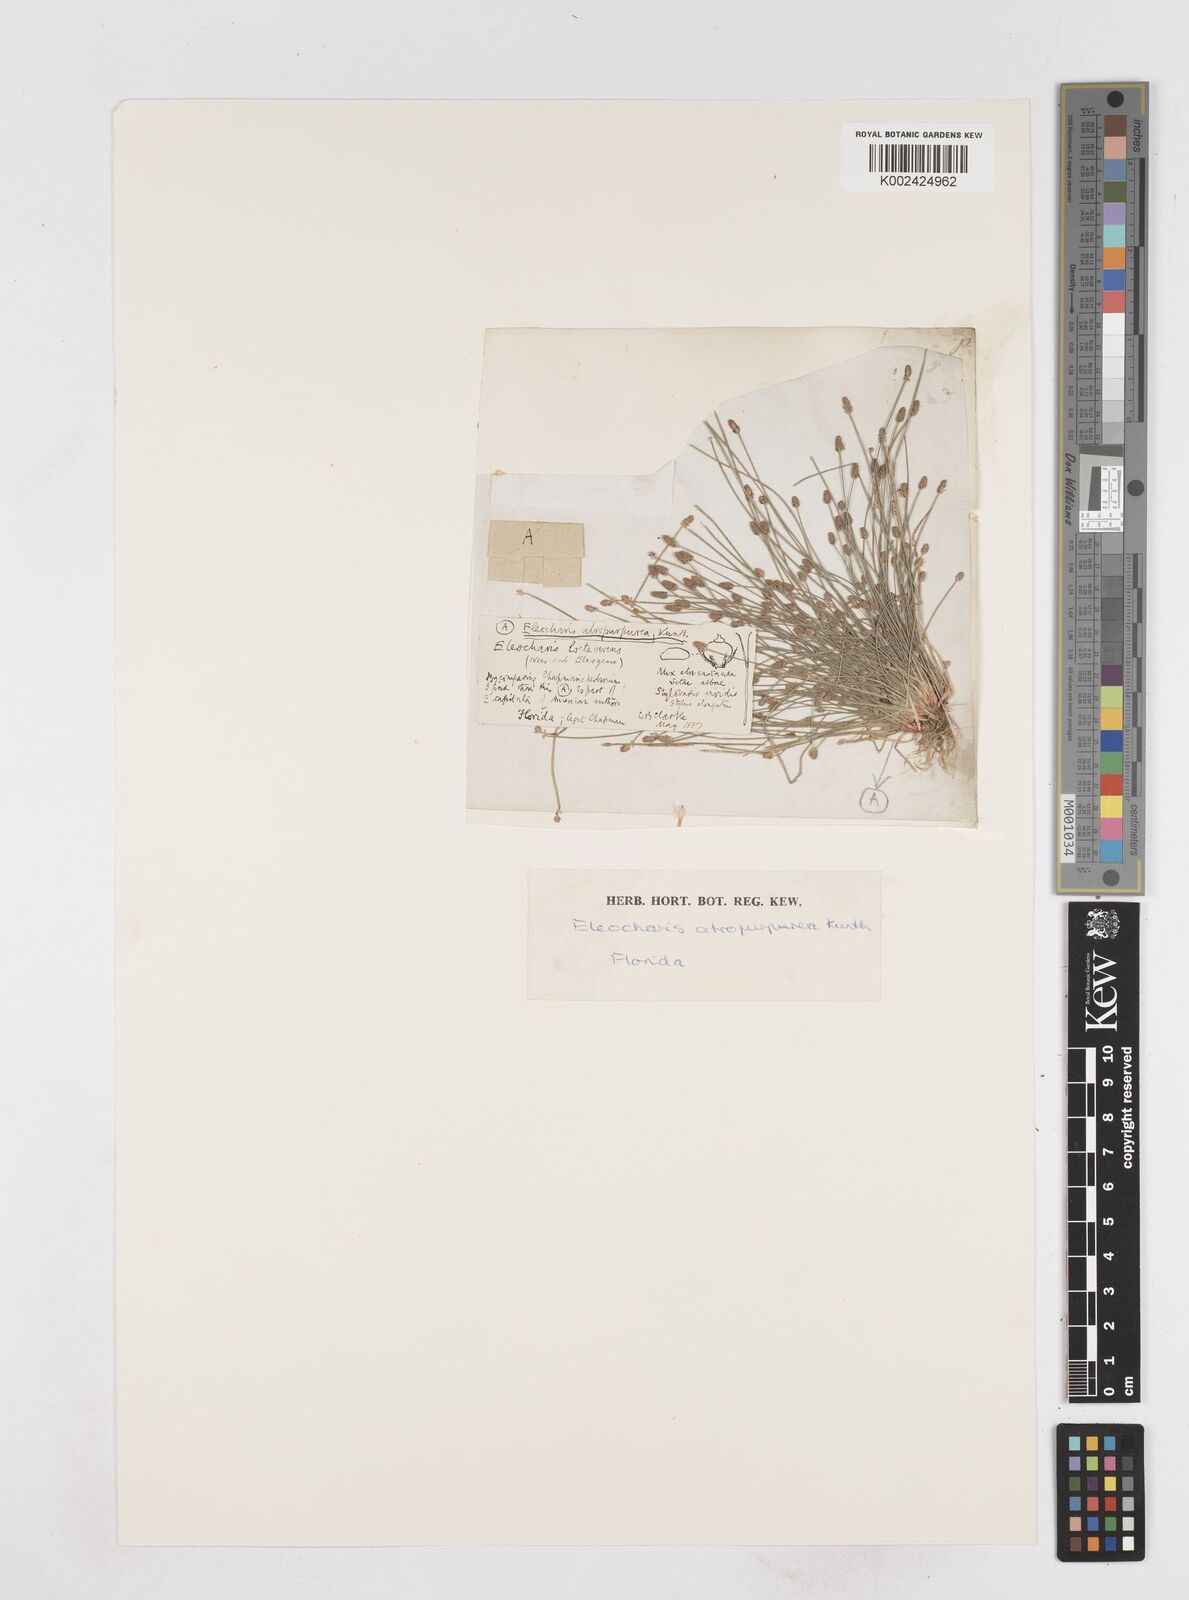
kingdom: Plantae
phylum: Tracheophyta
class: Liliopsida
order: Poales
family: Cyperaceae
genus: Eleocharis
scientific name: Eleocharis atropurpurea
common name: Purple spikerush
